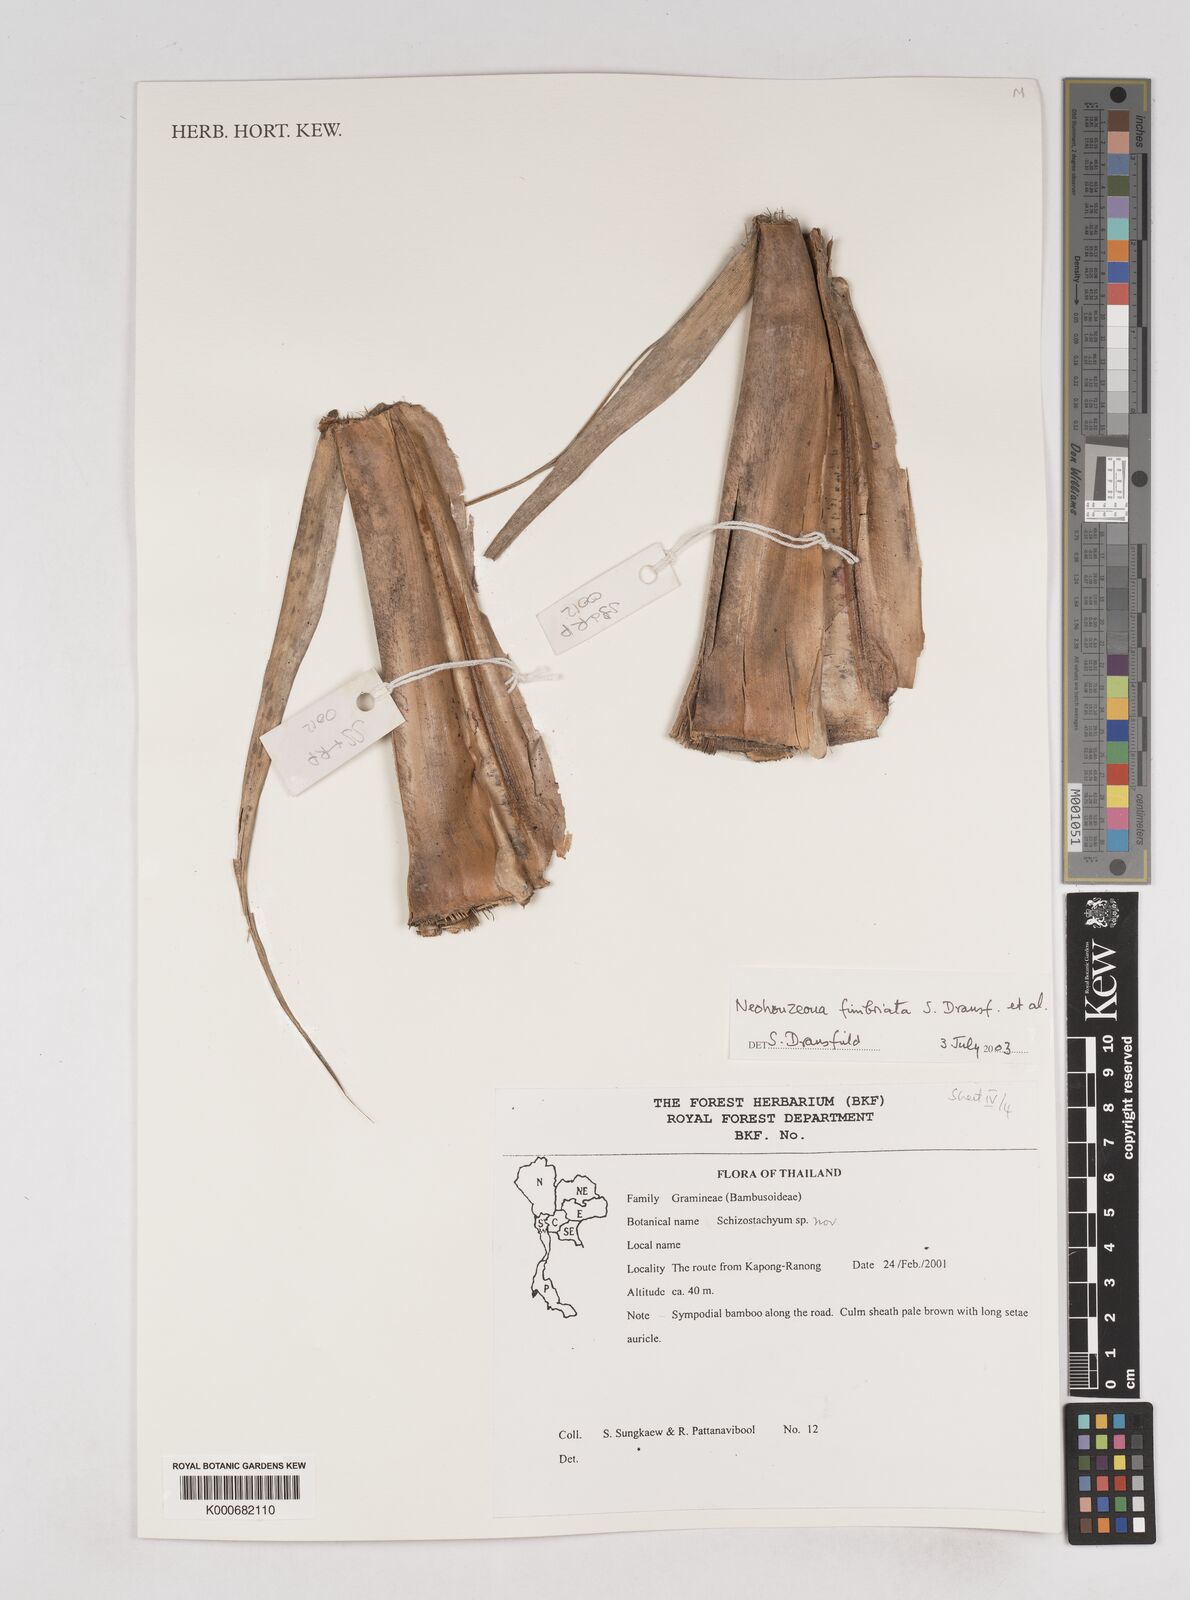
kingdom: Plantae
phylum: Tracheophyta
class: Liliopsida
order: Poales
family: Poaceae
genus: Schizostachyum
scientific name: Schizostachyum
